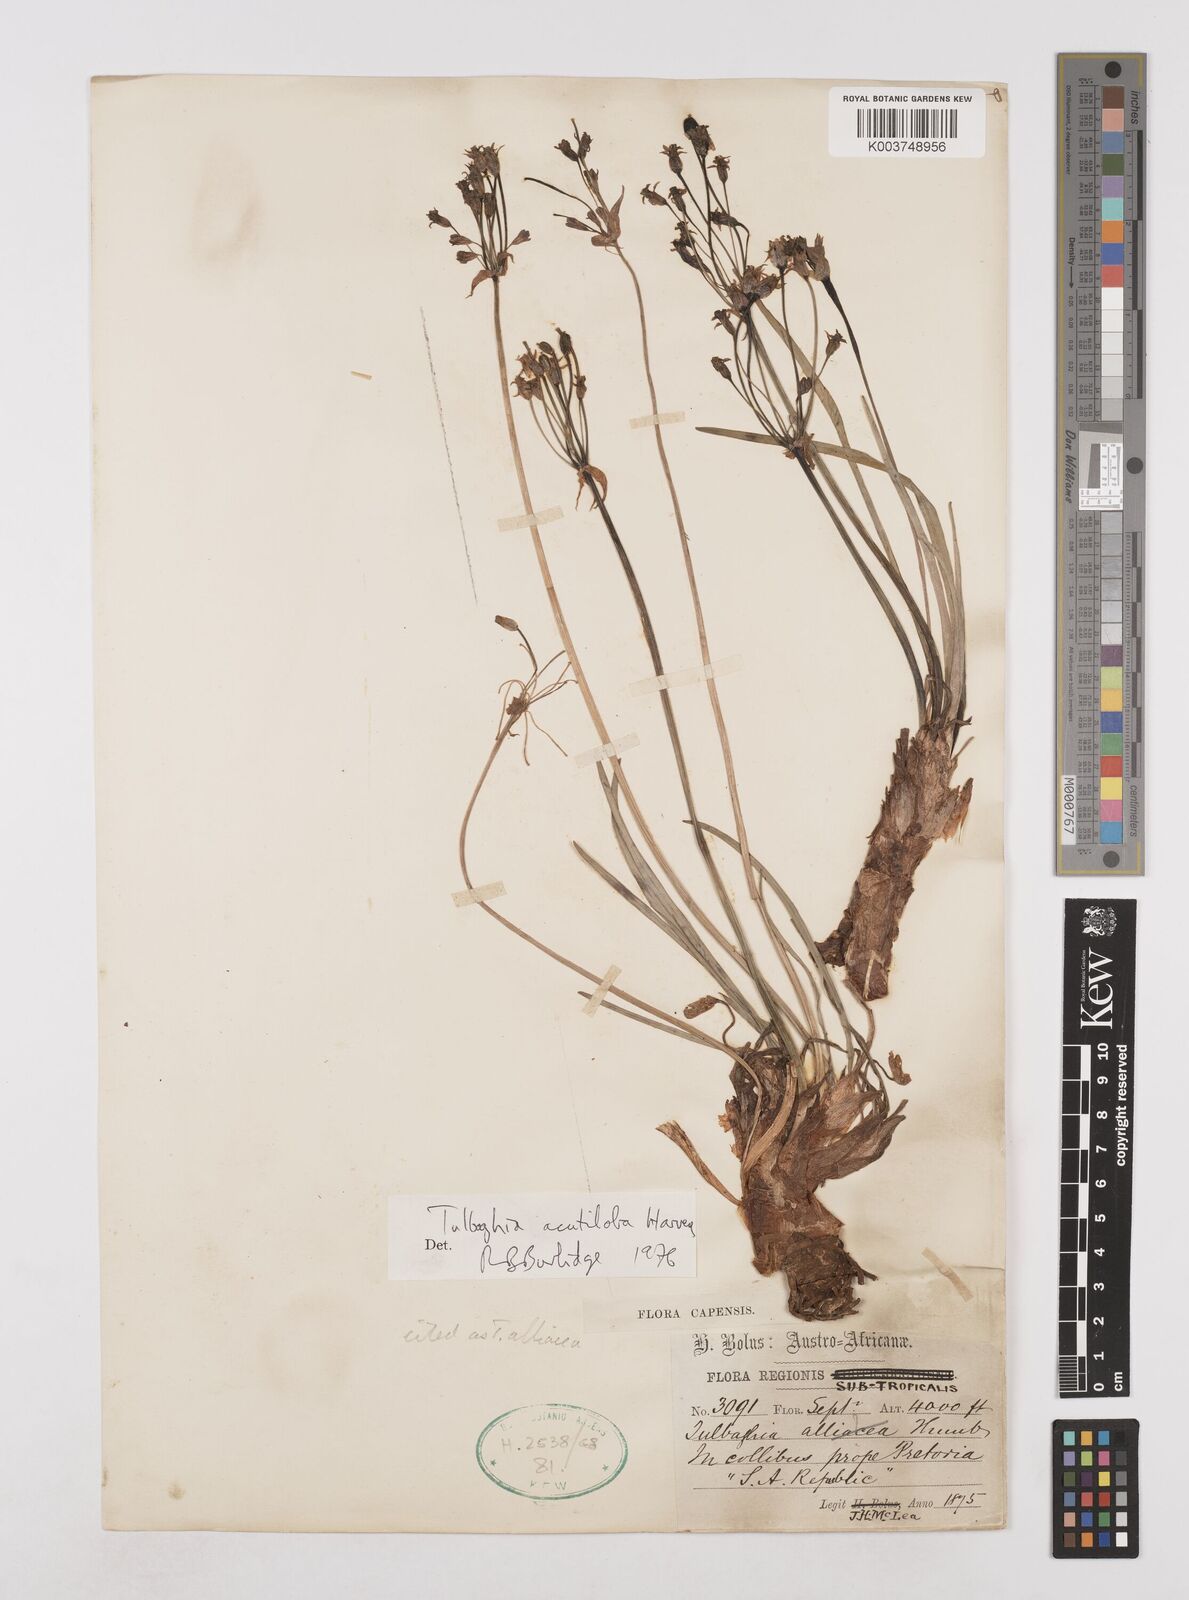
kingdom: Plantae
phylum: Tracheophyta
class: Liliopsida
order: Asparagales
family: Amaryllidaceae
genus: Tulbaghia
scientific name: Tulbaghia alliacea
